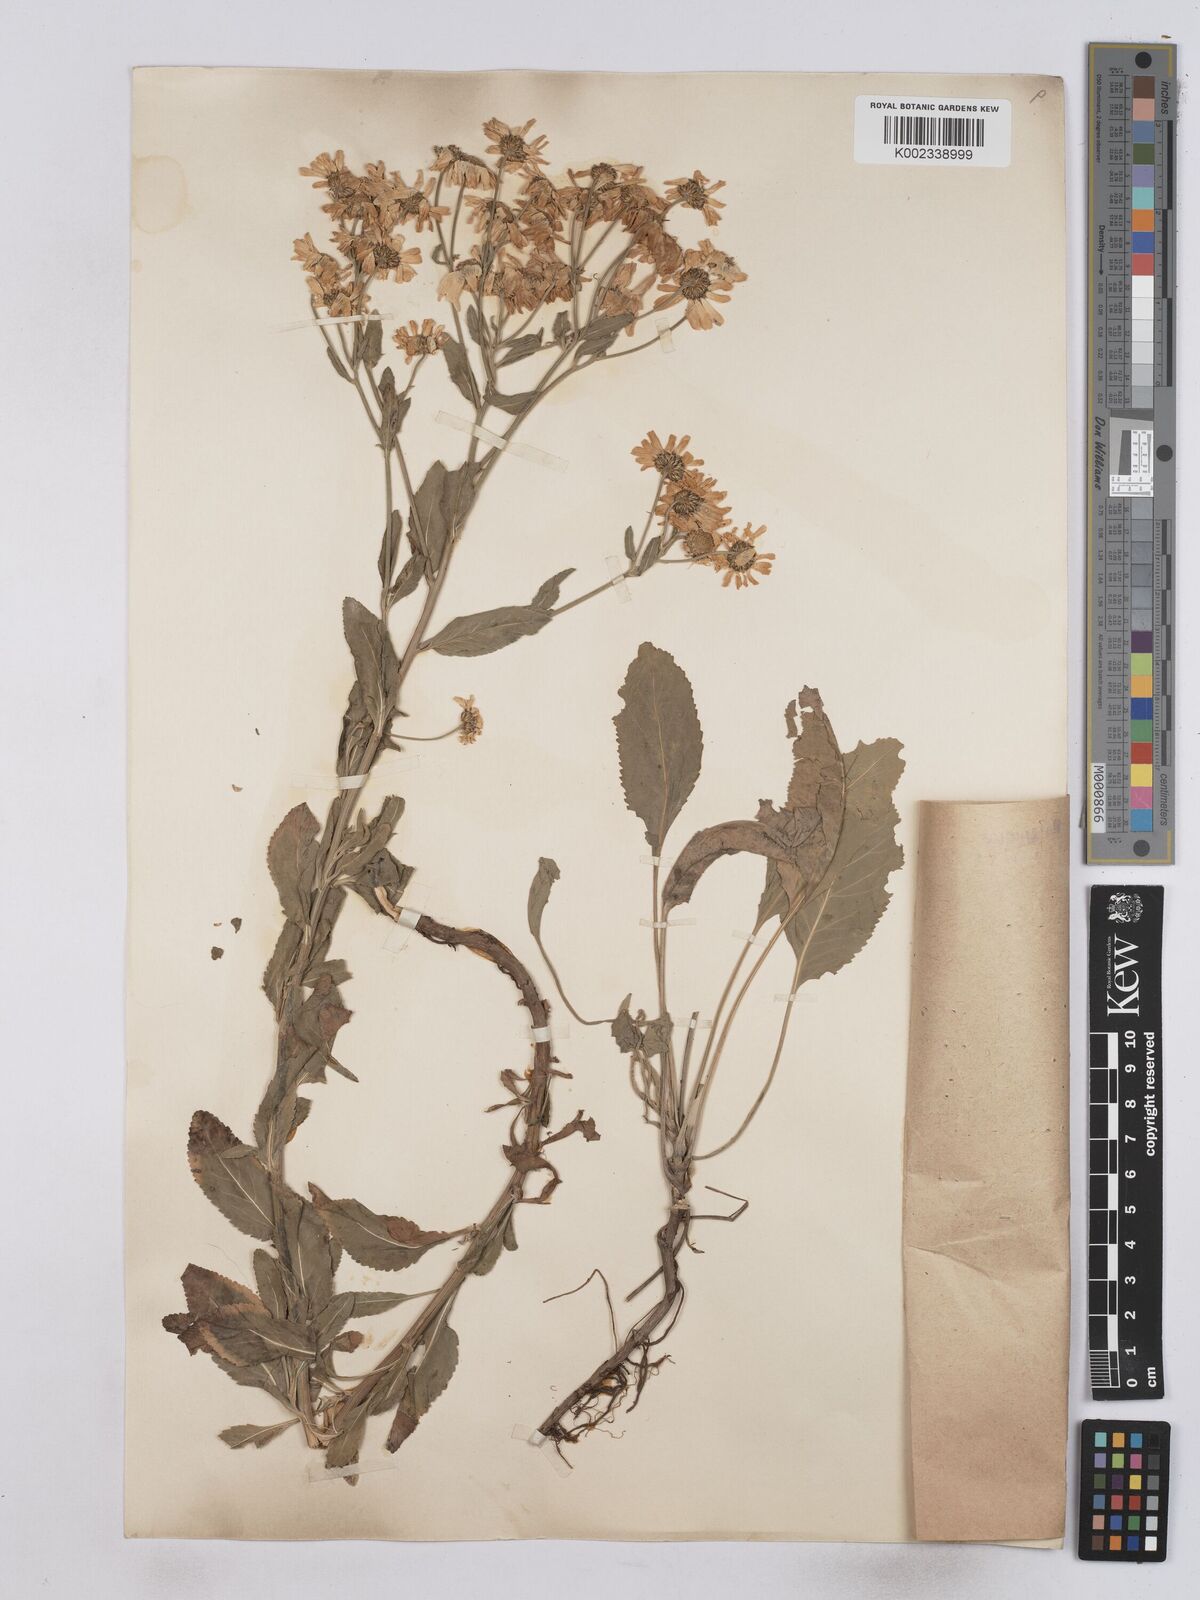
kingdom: Plantae
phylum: Tracheophyta
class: Magnoliopsida
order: Asterales
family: Asteraceae
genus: Tanacetum
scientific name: Tanacetum balsamita
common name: Costmary
